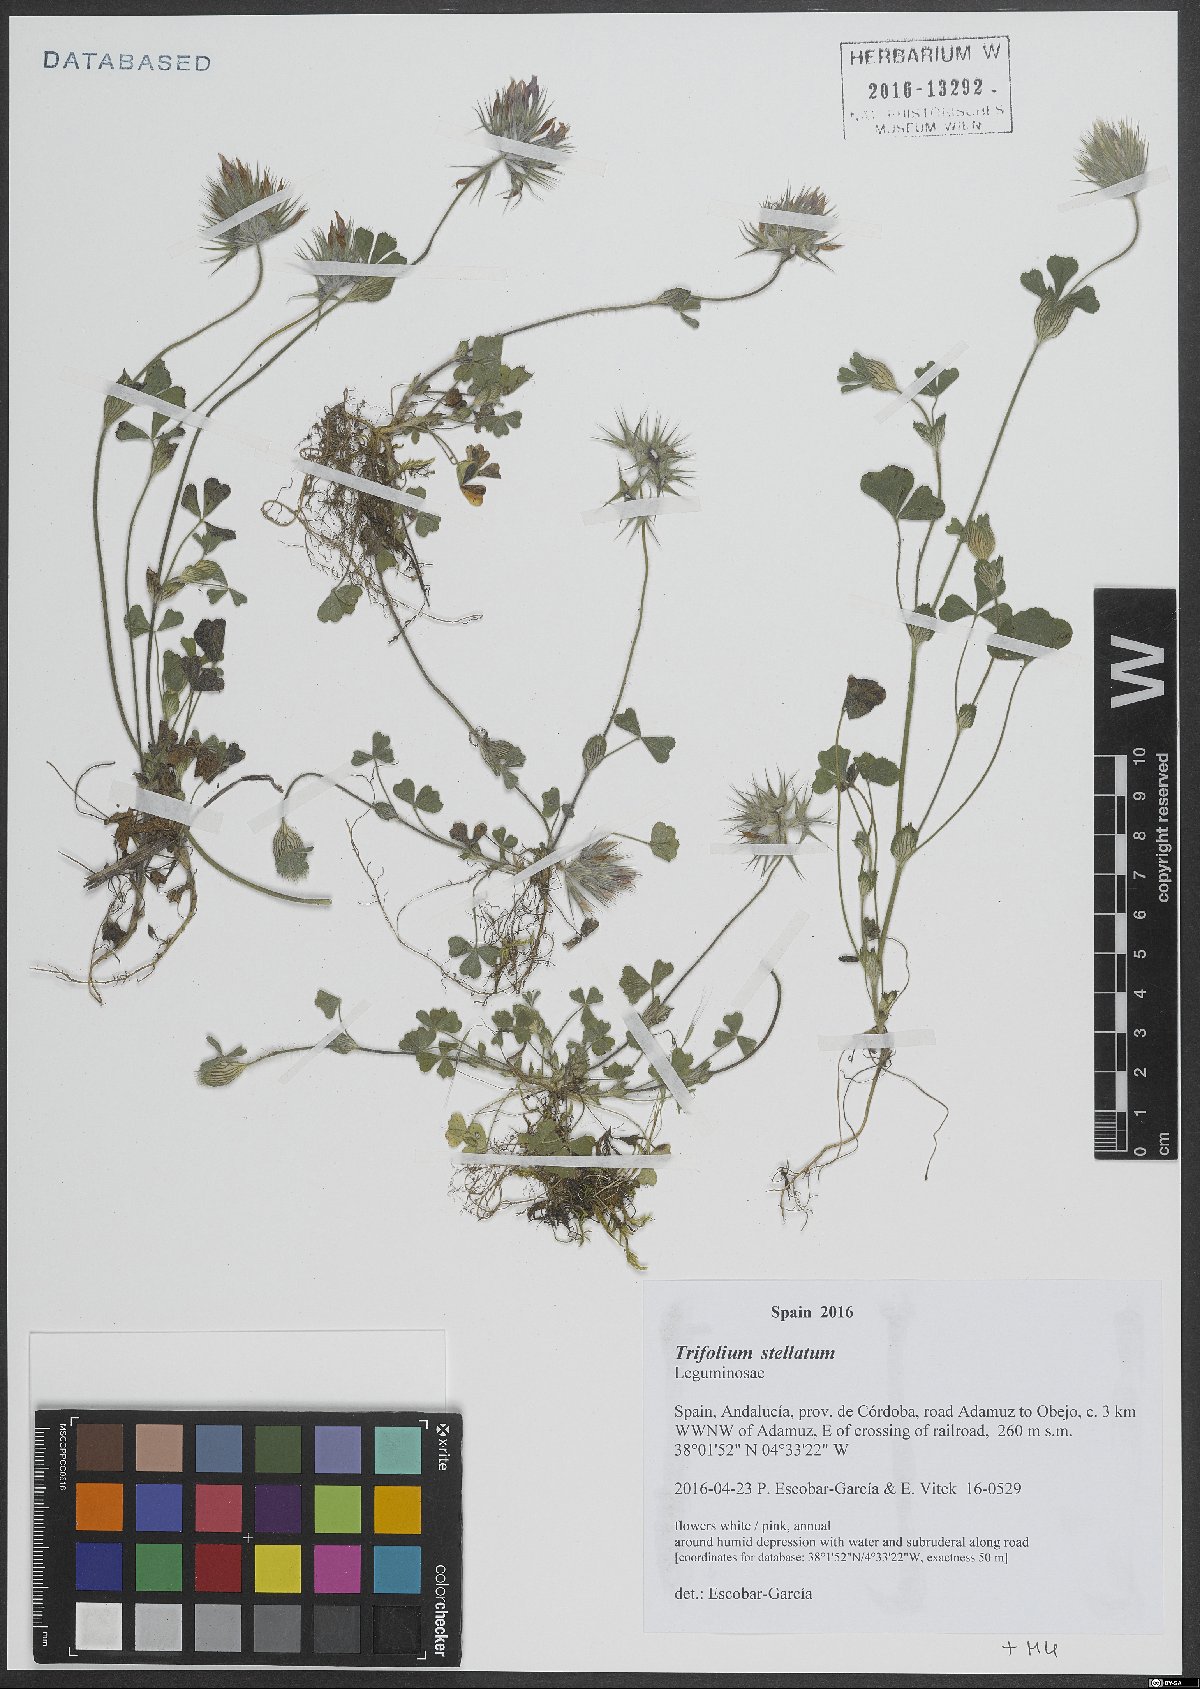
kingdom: Plantae
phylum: Tracheophyta
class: Magnoliopsida
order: Fabales
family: Fabaceae
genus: Trifolium
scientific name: Trifolium stellatum
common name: Starry clover
